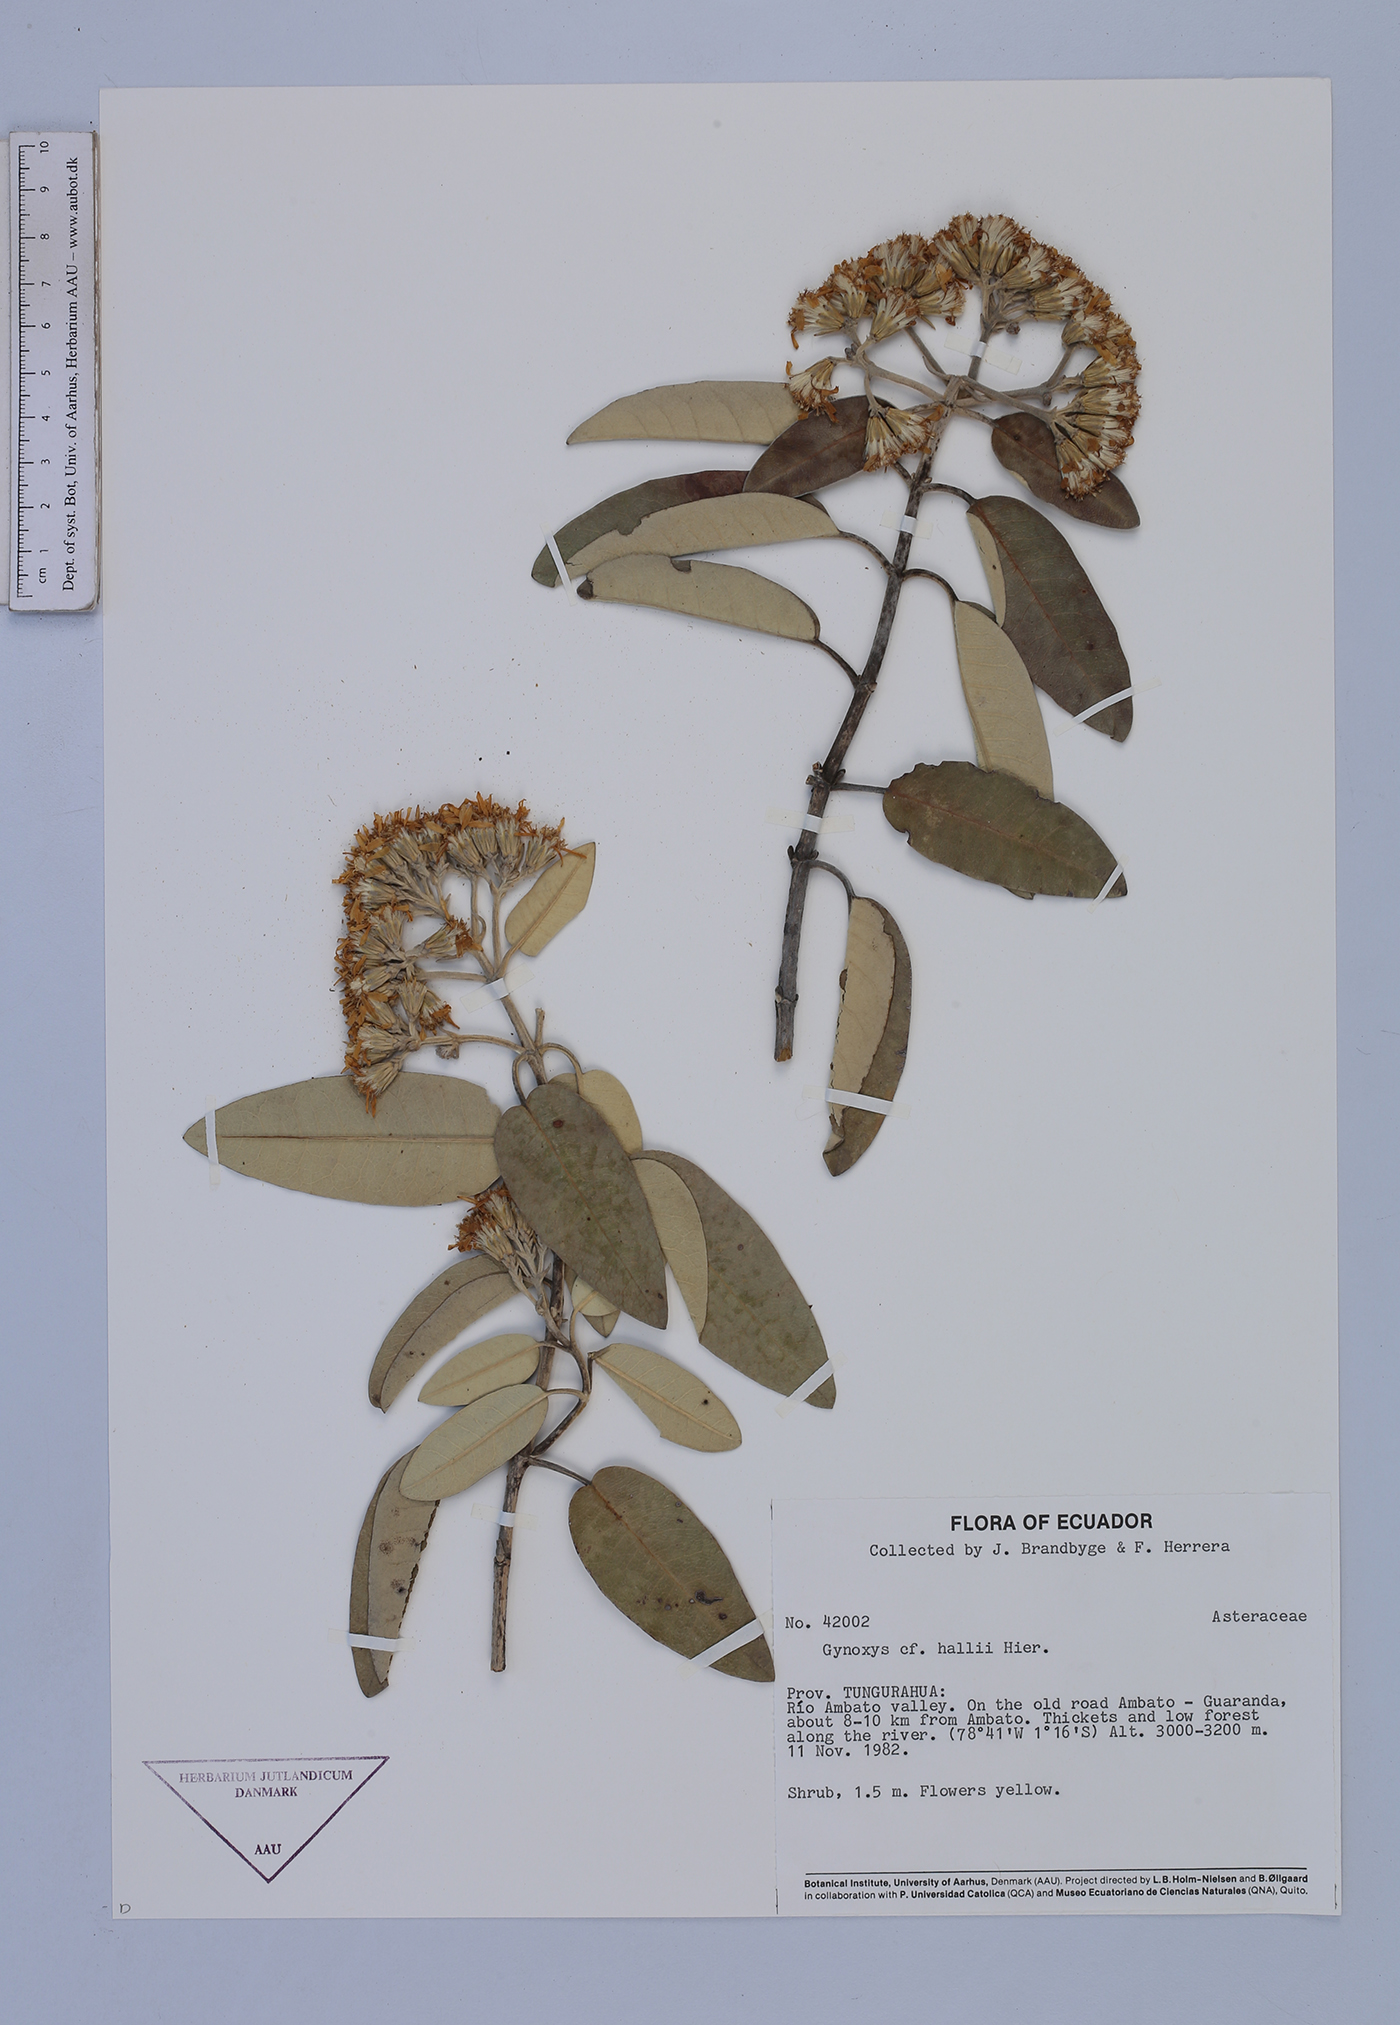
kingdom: Plantae
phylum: Tracheophyta
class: Magnoliopsida
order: Asterales
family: Asteraceae
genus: Gynoxys
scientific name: Gynoxys hallii
